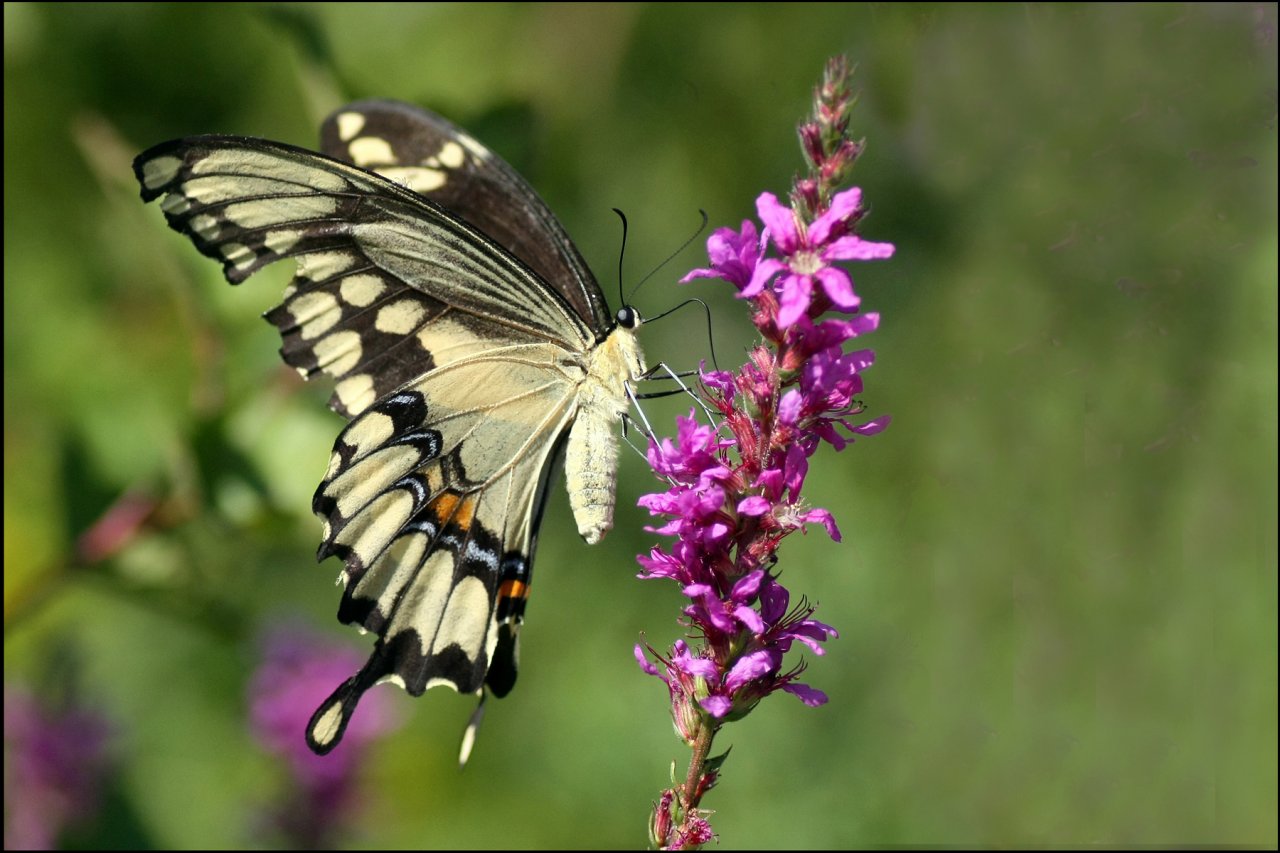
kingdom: Animalia
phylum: Arthropoda
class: Insecta
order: Lepidoptera
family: Papilionidae
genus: Papilio
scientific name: Papilio cresphontes
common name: Eastern Giant Swallowtail
